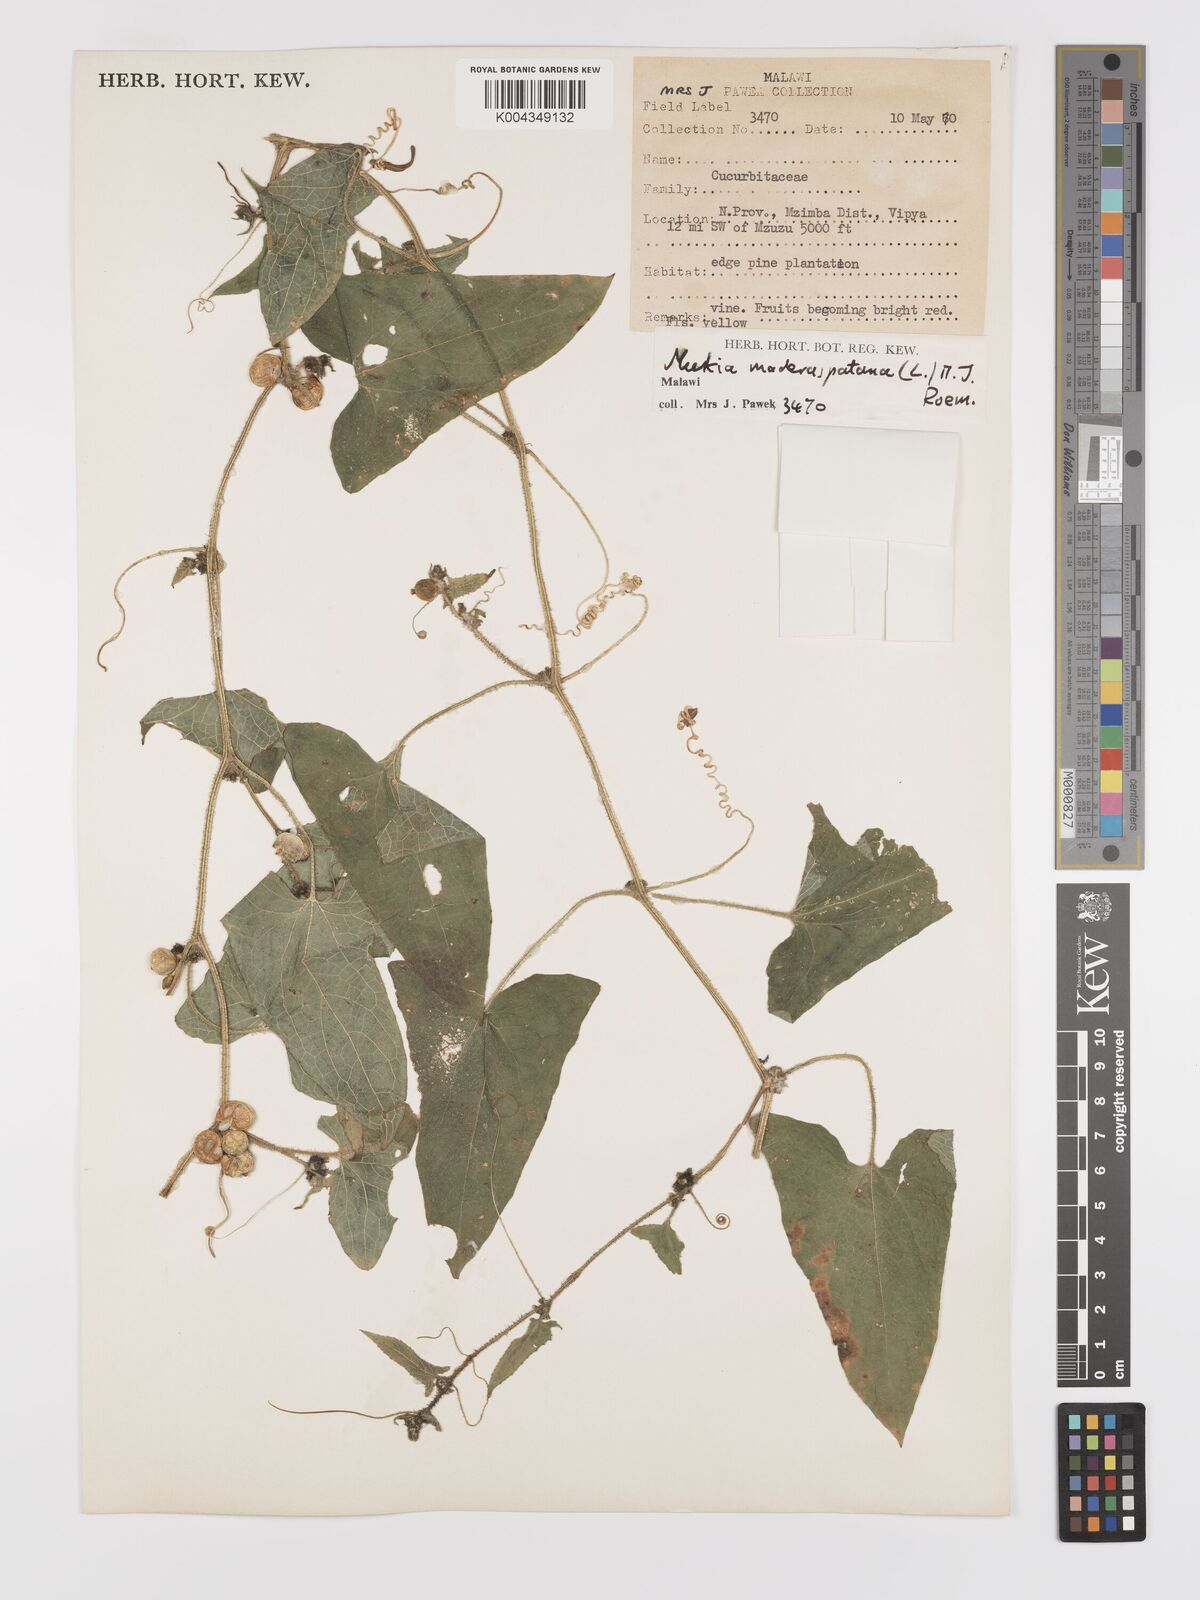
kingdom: Plantae
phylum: Tracheophyta
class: Magnoliopsida
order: Cucurbitales
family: Cucurbitaceae
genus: Cucumis
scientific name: Cucumis maderaspatanus
